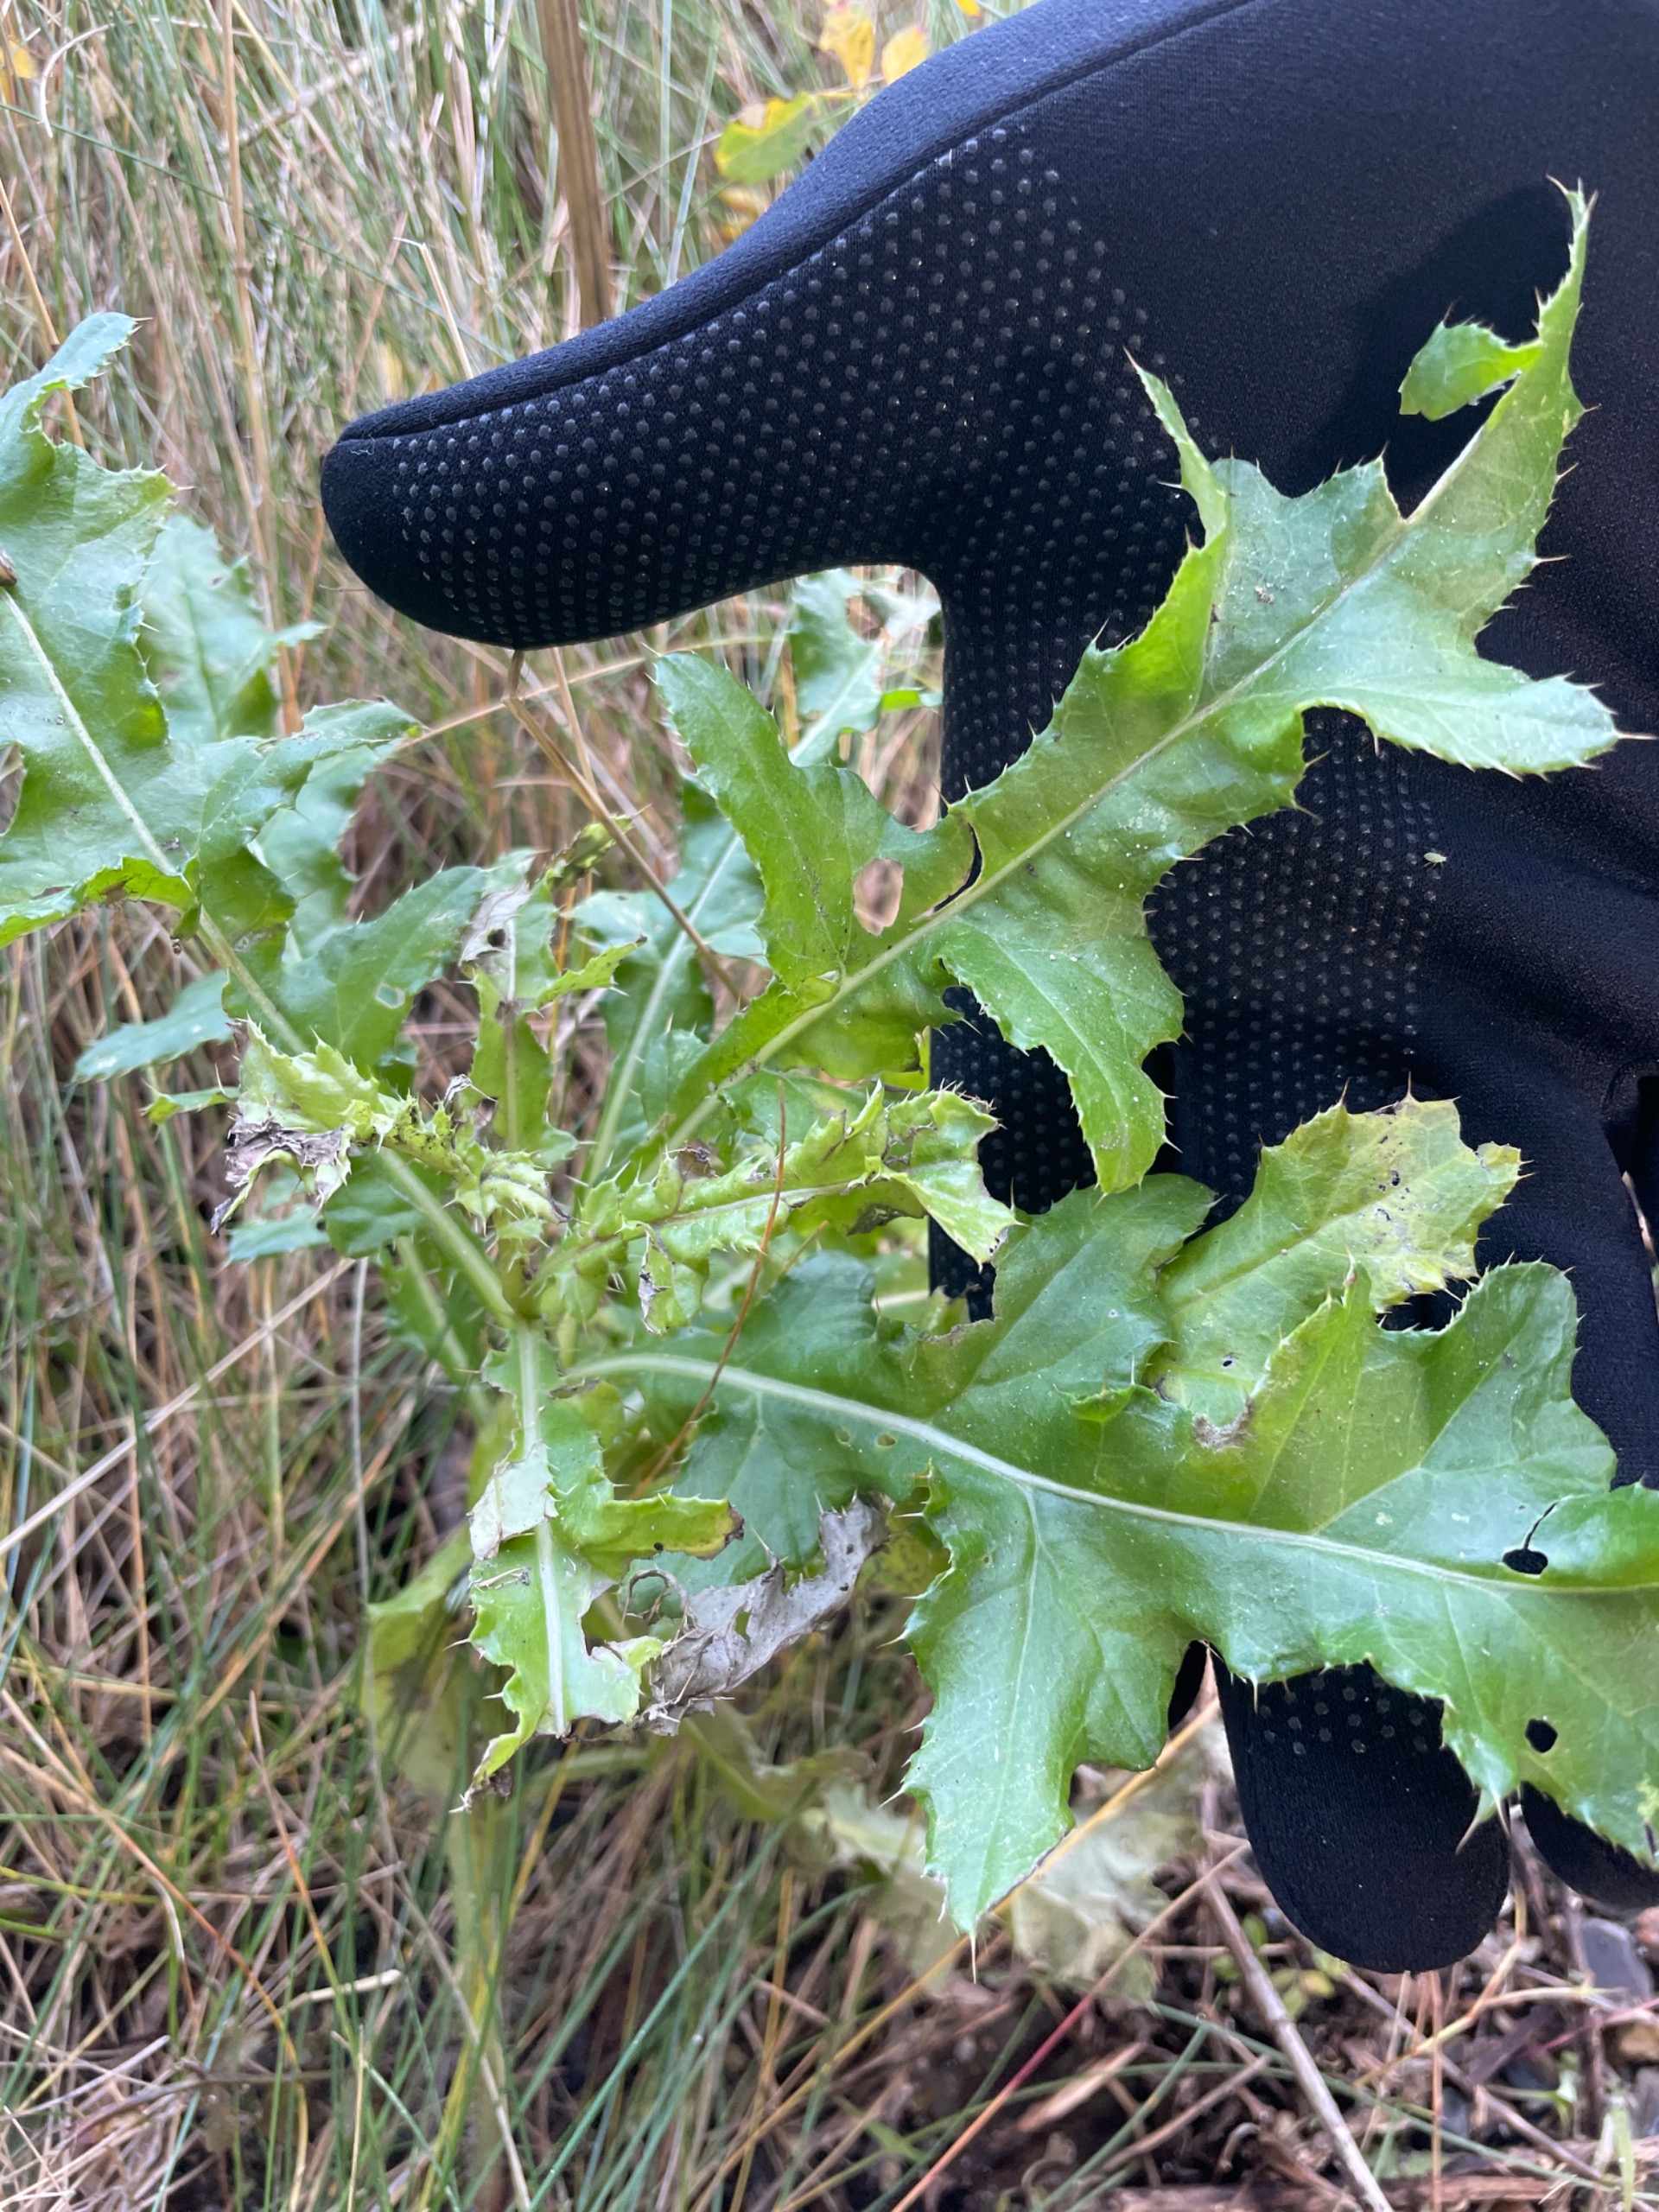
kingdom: Plantae
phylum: Tracheophyta
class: Magnoliopsida
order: Asterales
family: Asteraceae
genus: Cirsium
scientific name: Cirsium arvense
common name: Ager-tidsel
